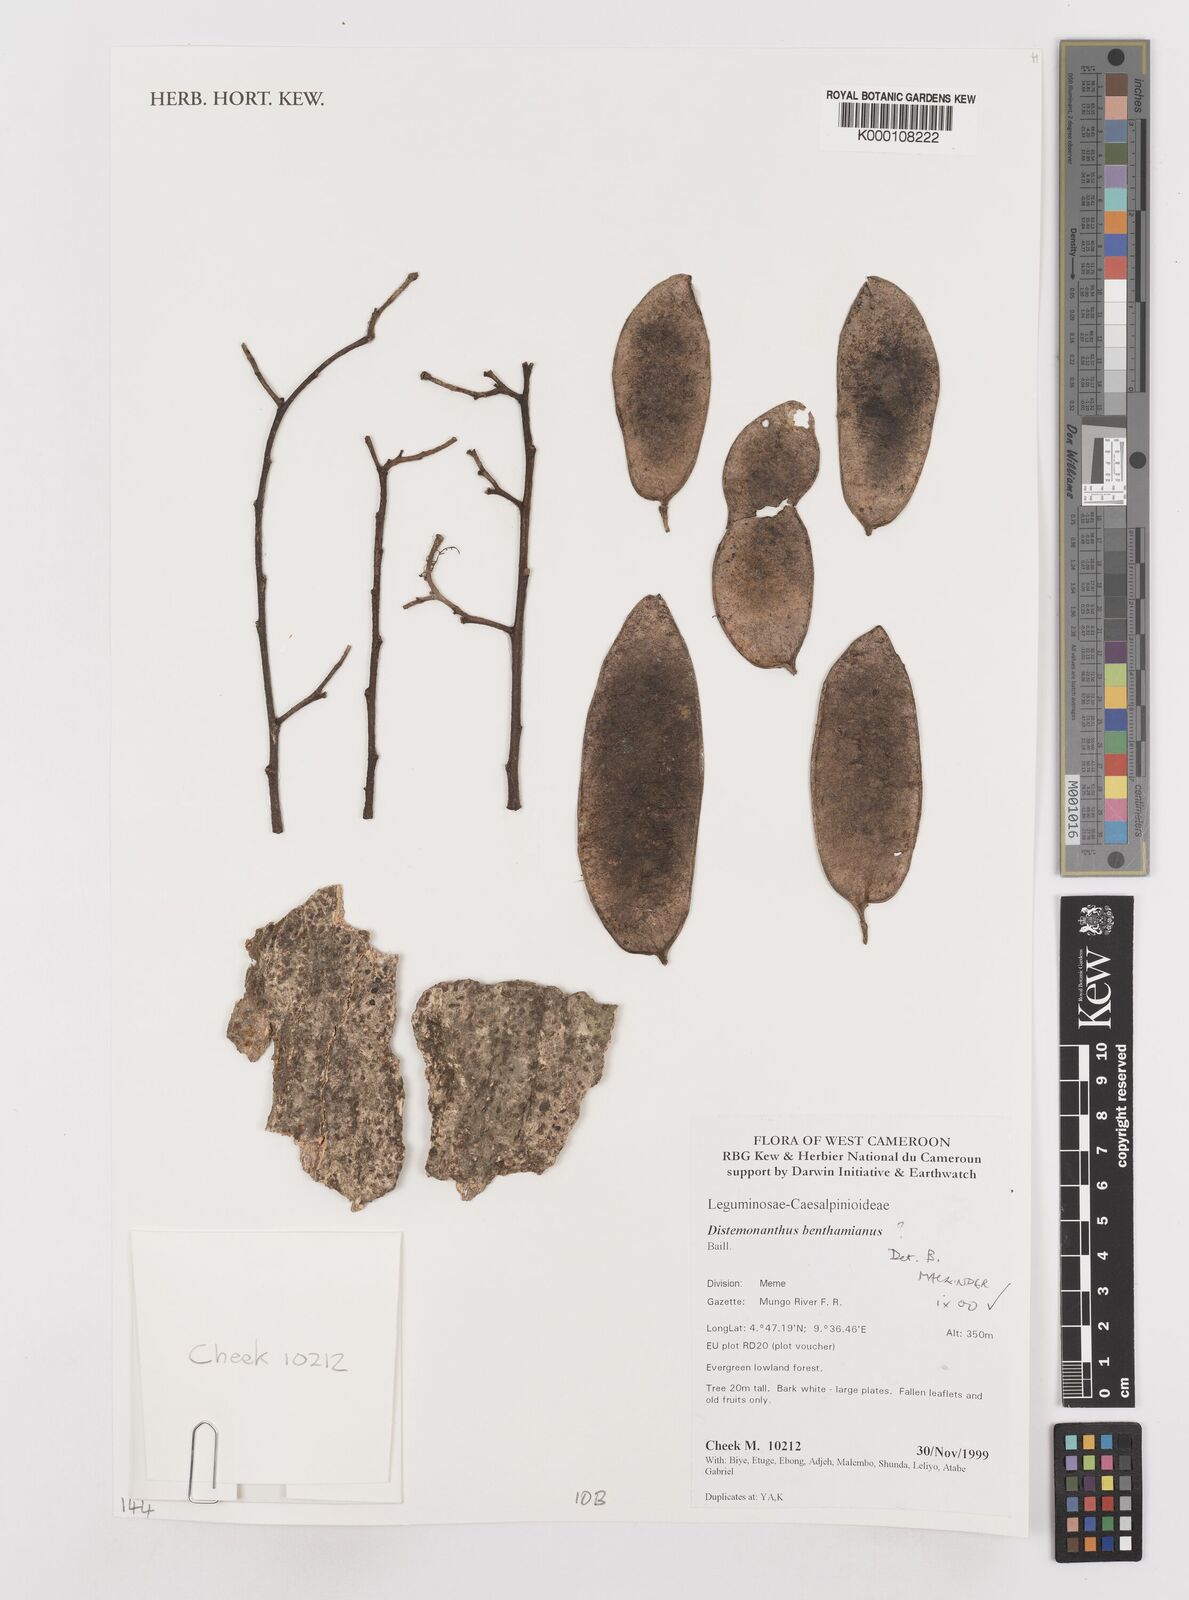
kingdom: Plantae
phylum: Tracheophyta
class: Magnoliopsida
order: Fabales
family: Fabaceae
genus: Distemonanthus
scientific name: Distemonanthus benthamianus
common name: Yellow satinwood
